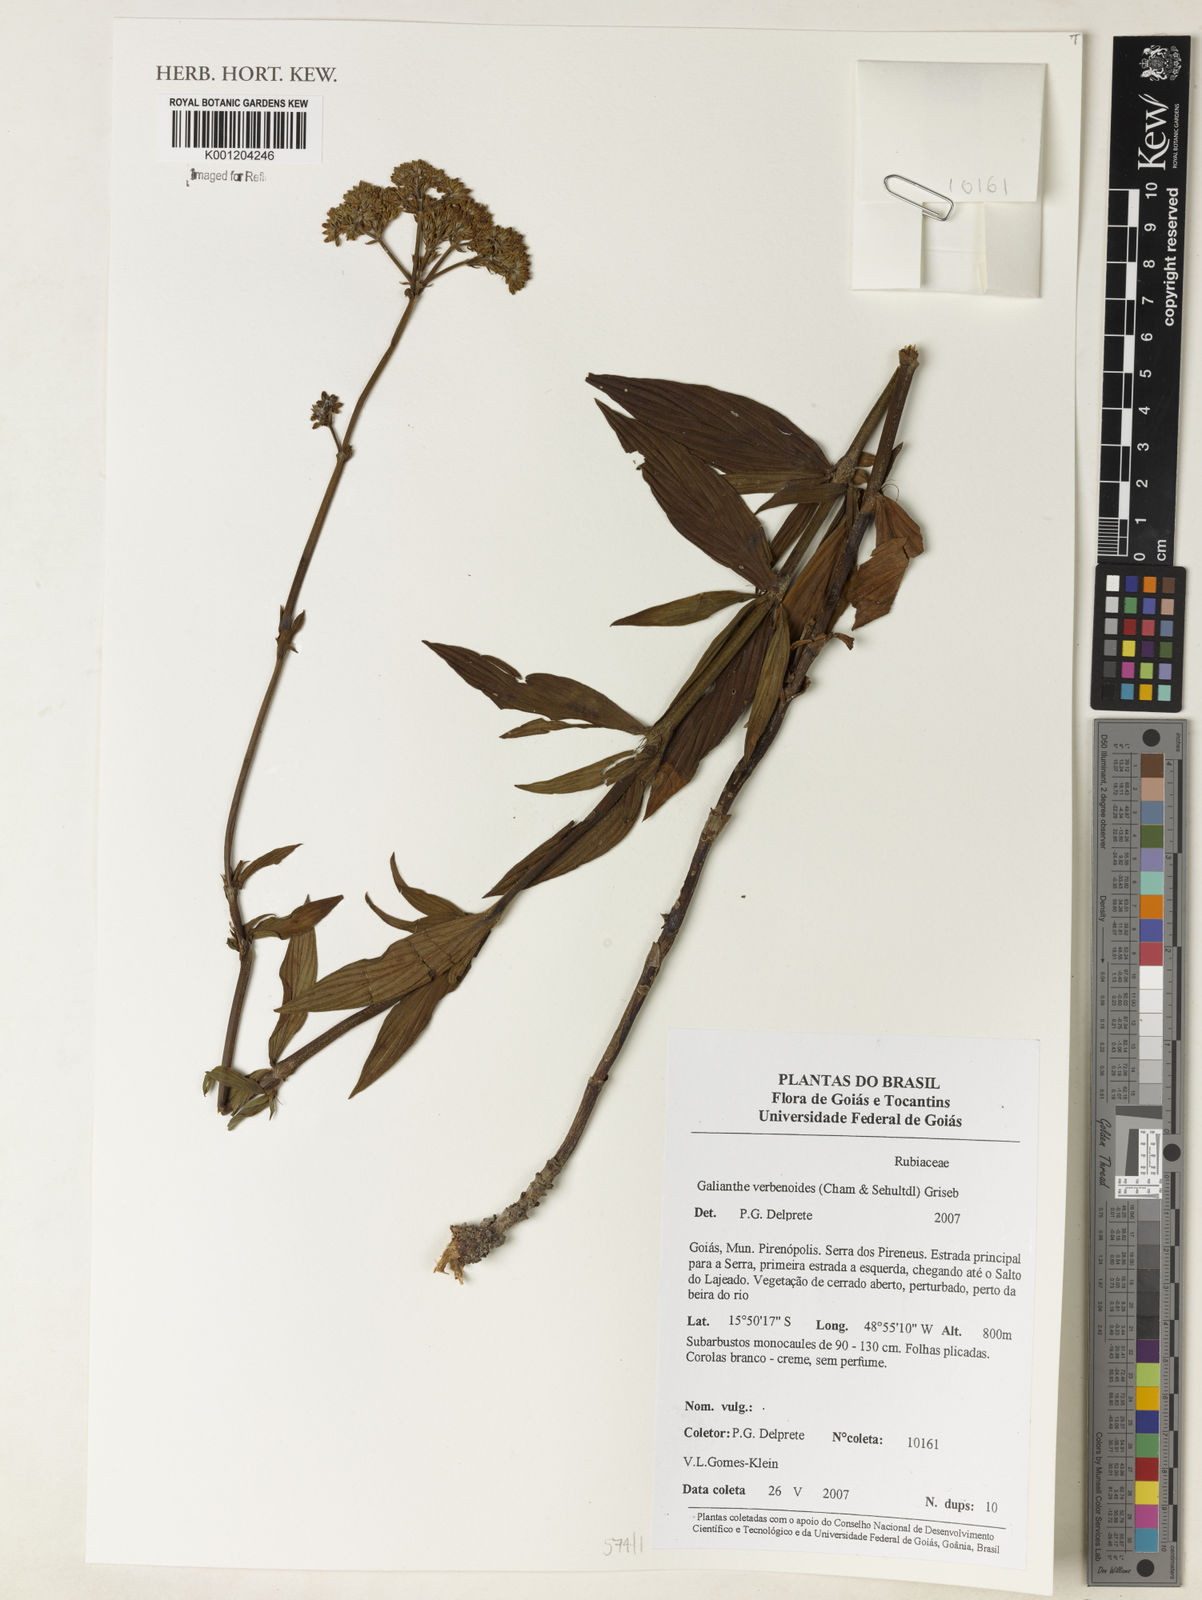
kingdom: Plantae
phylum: Tracheophyta
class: Magnoliopsida
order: Gentianales
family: Rubiaceae
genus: Galianthe
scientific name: Galianthe valerianoides
